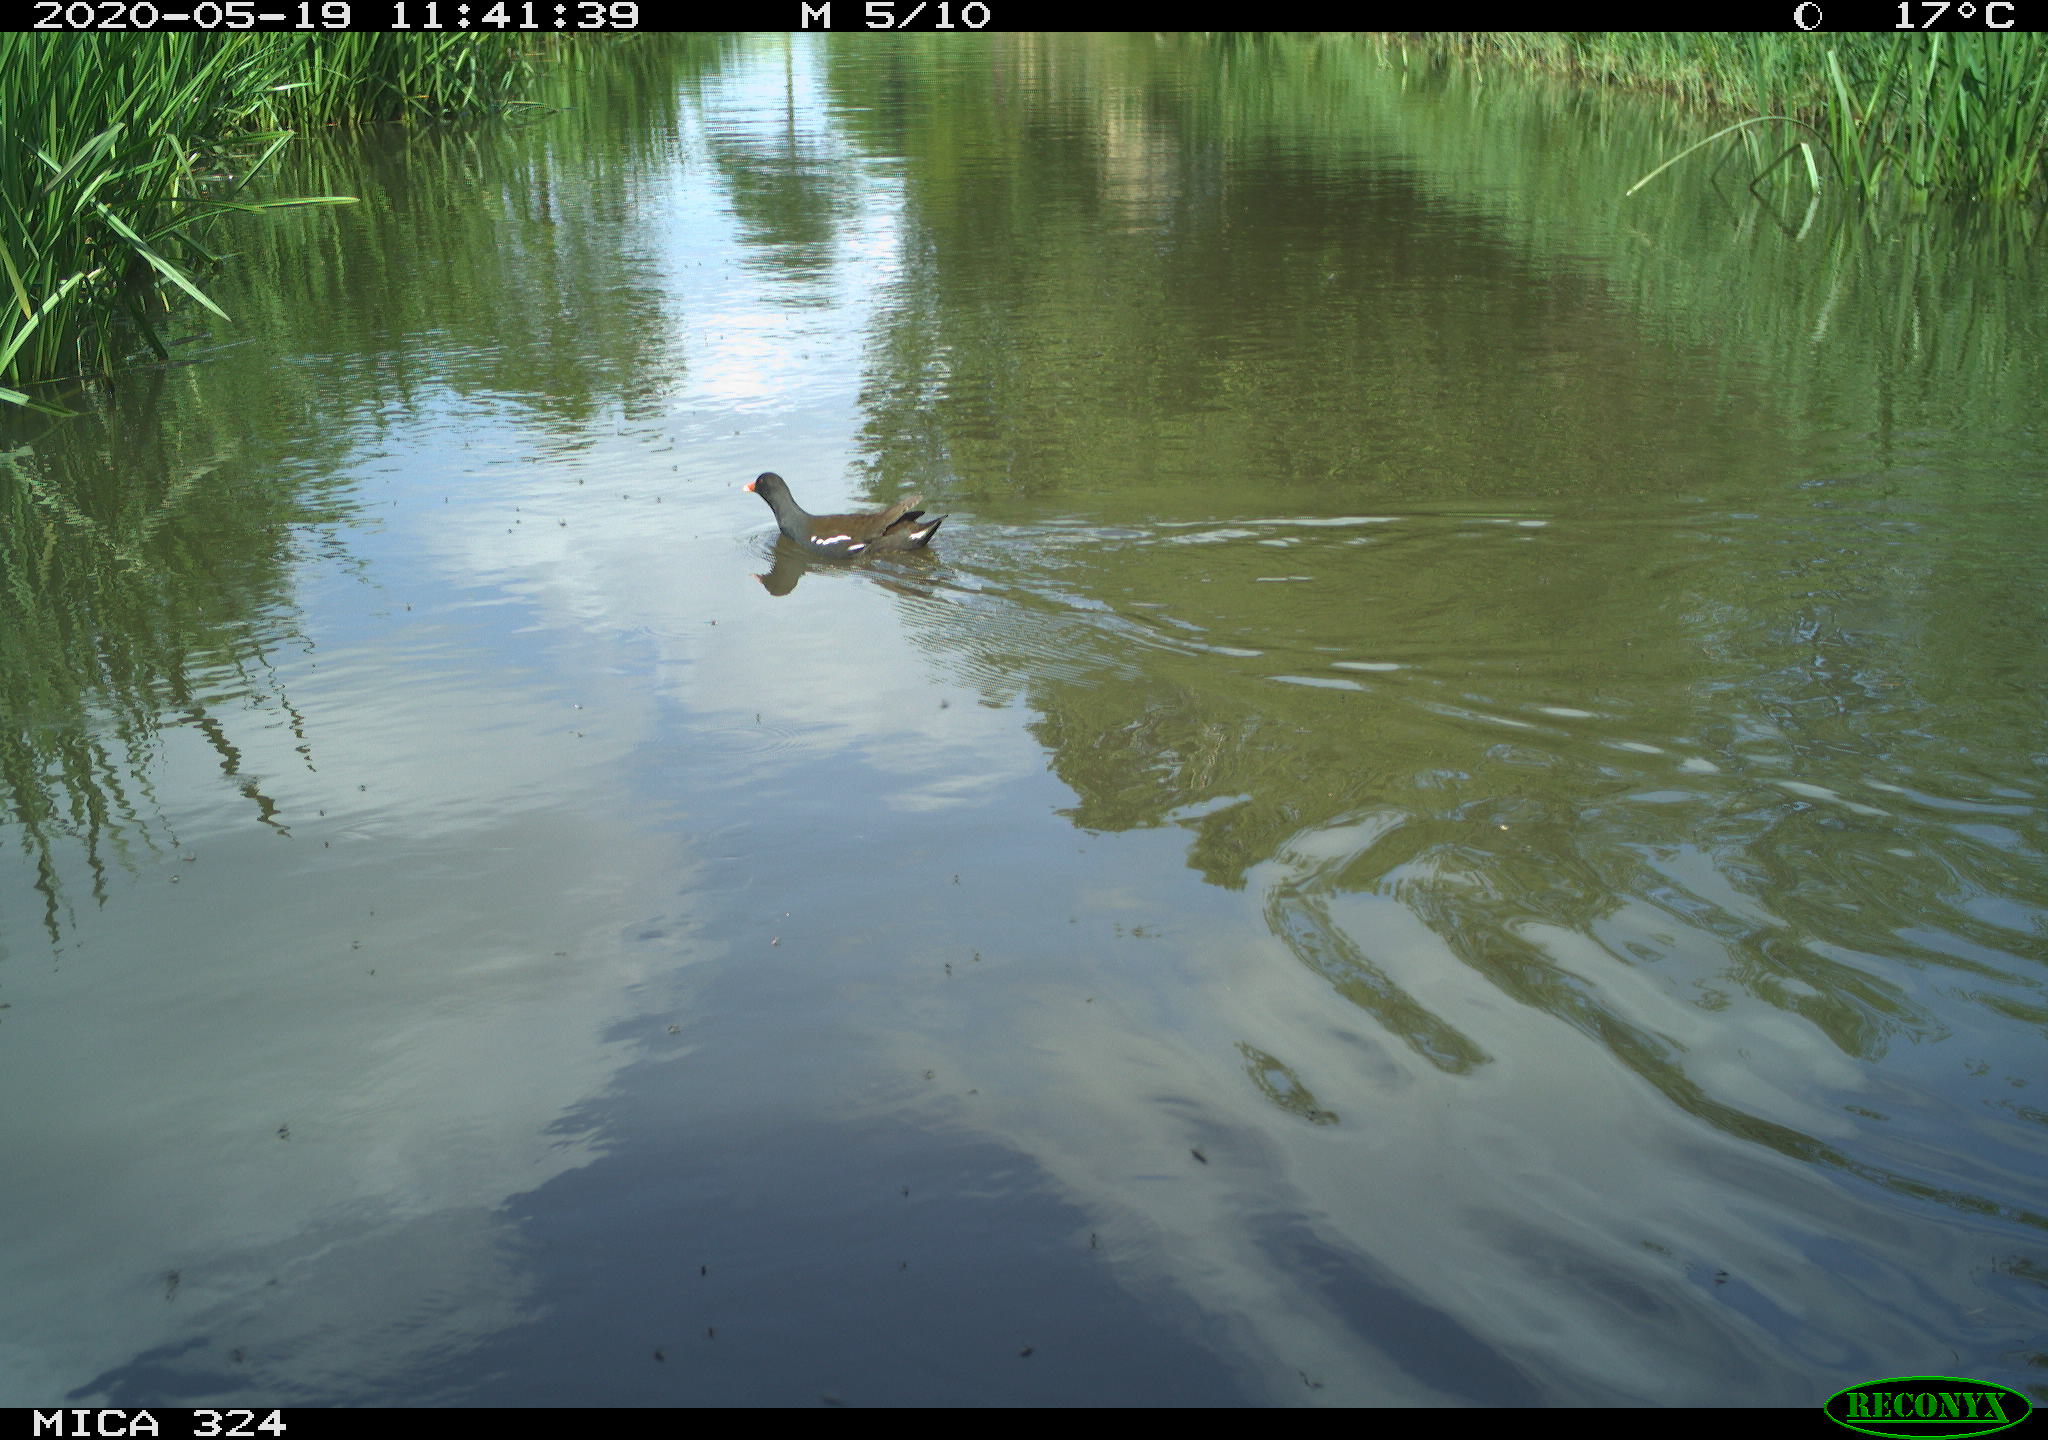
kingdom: Animalia
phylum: Chordata
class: Aves
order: Gruiformes
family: Rallidae
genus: Gallinula
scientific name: Gallinula chloropus
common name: Common moorhen
